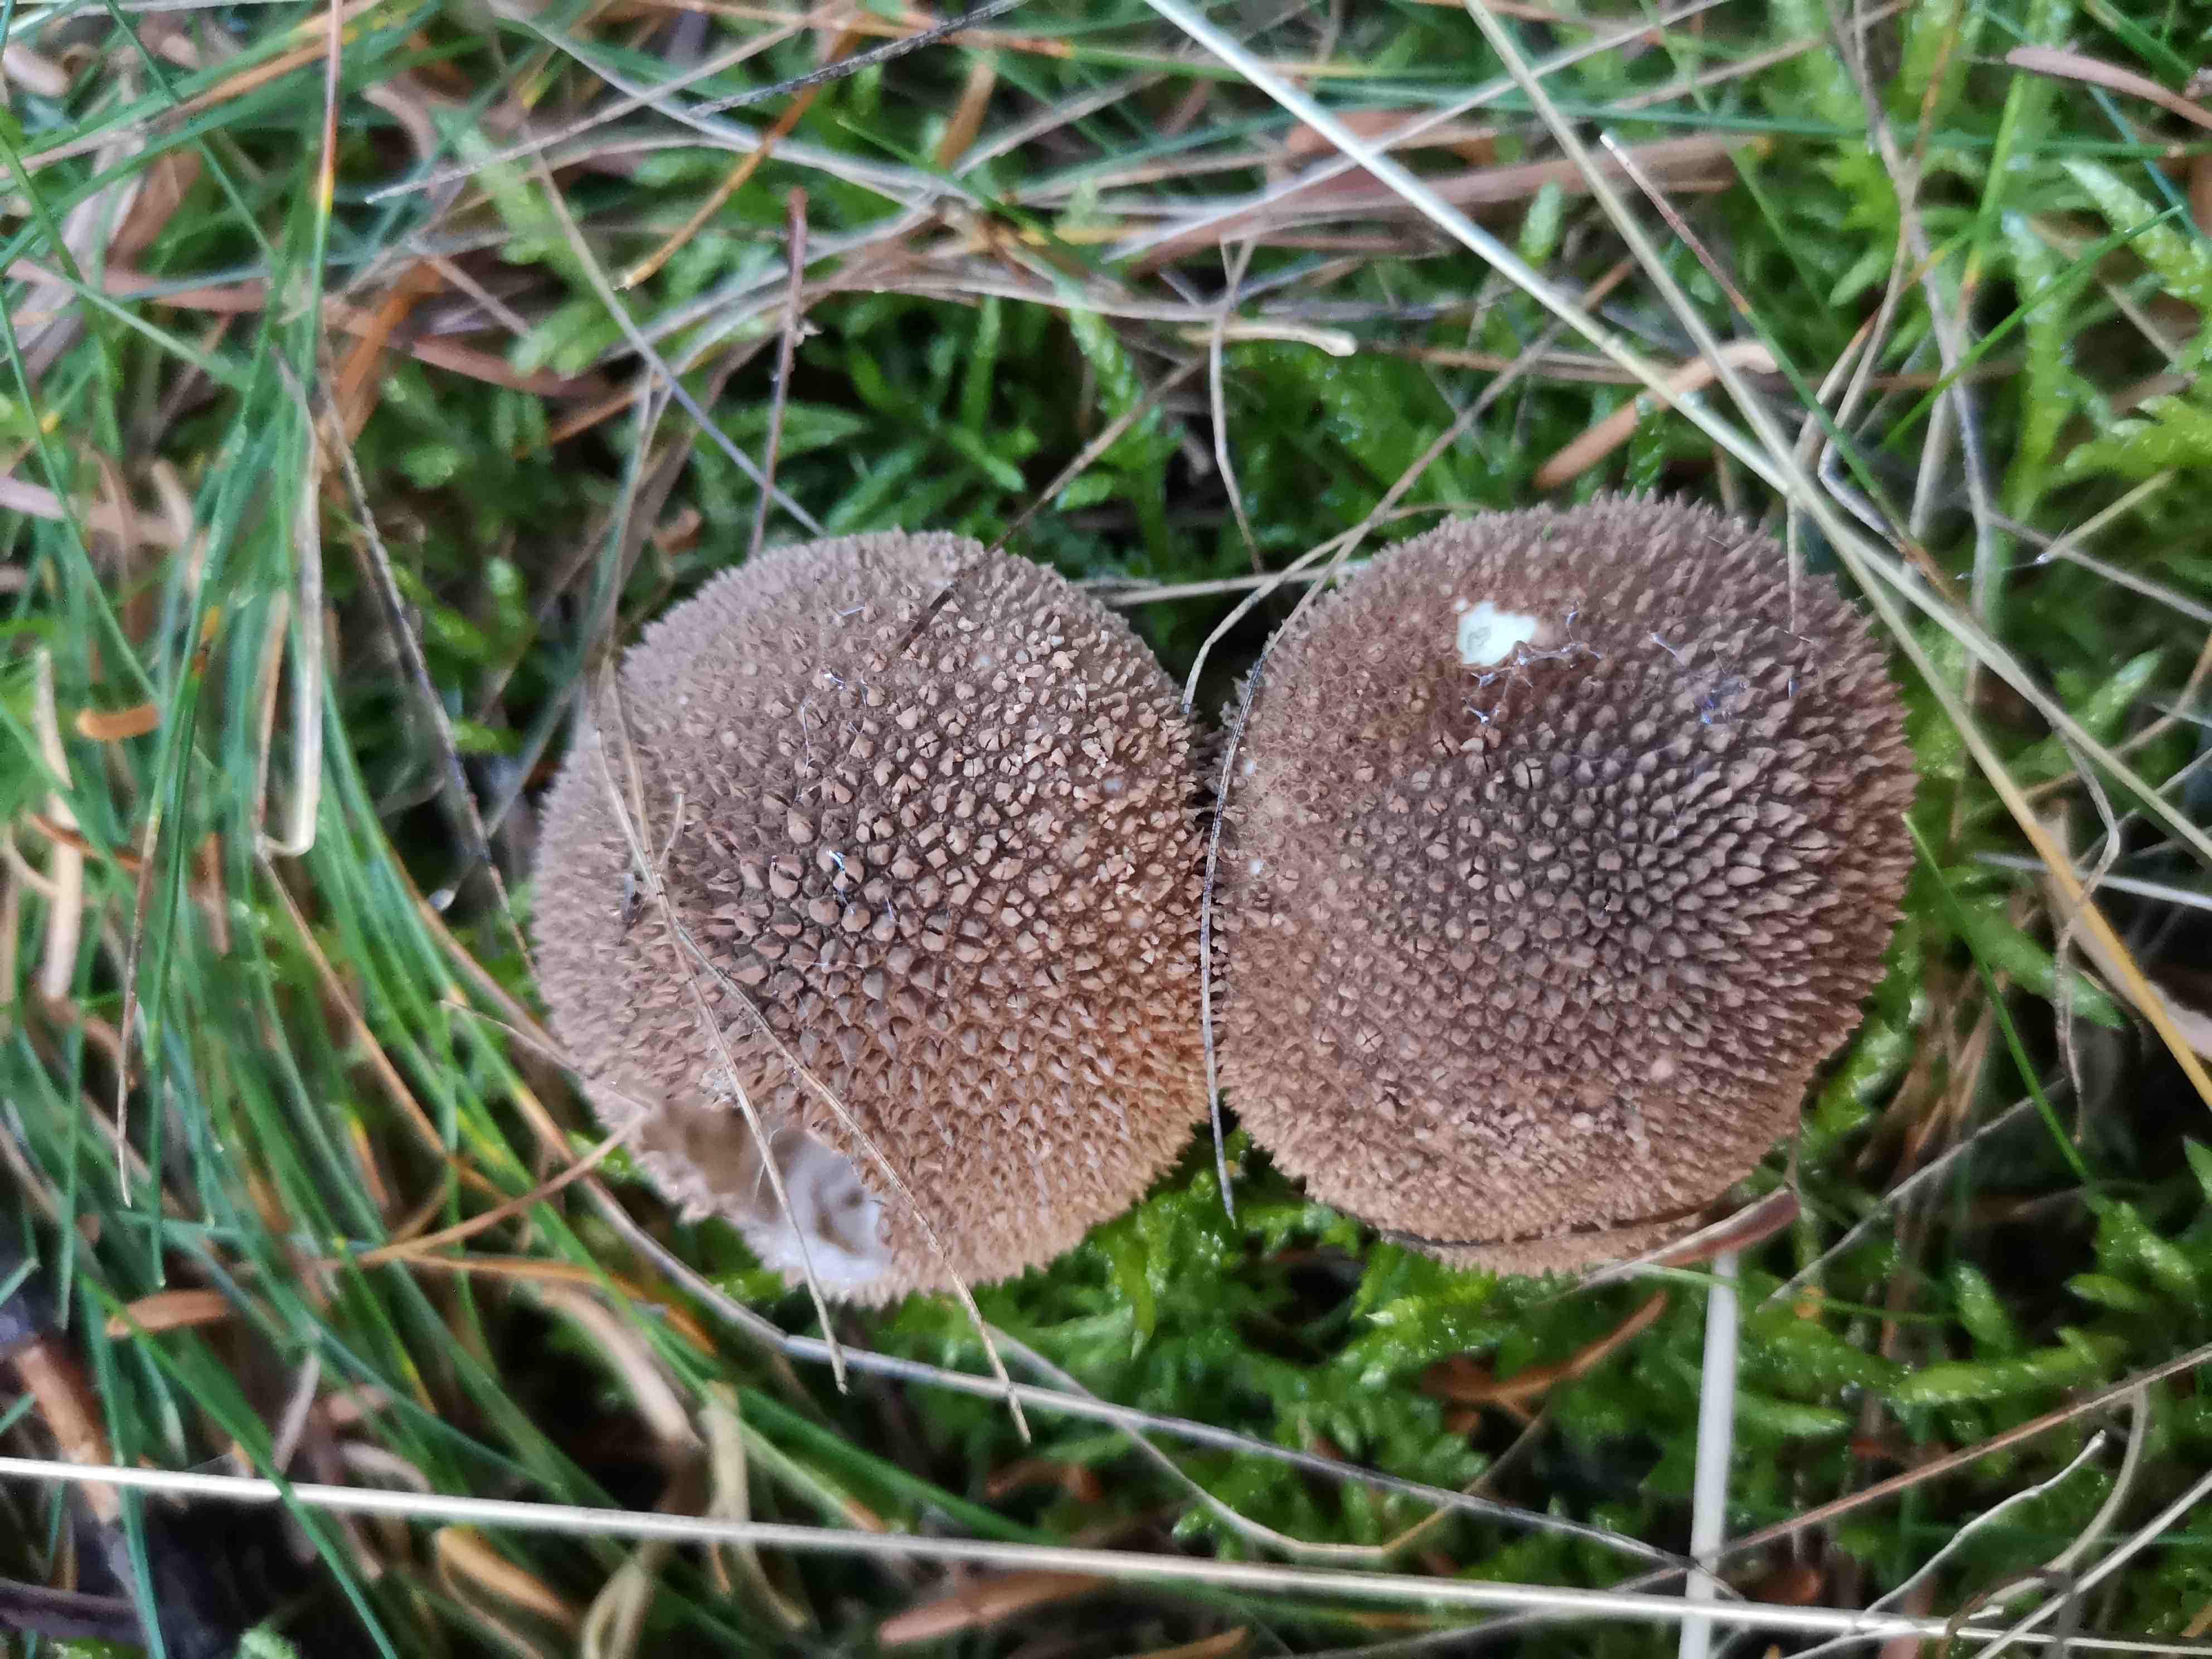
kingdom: Fungi
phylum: Basidiomycota
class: Agaricomycetes
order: Agaricales
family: Lycoperdaceae
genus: Lycoperdon
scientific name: Lycoperdon nigrescens
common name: sortagtig støvbold
